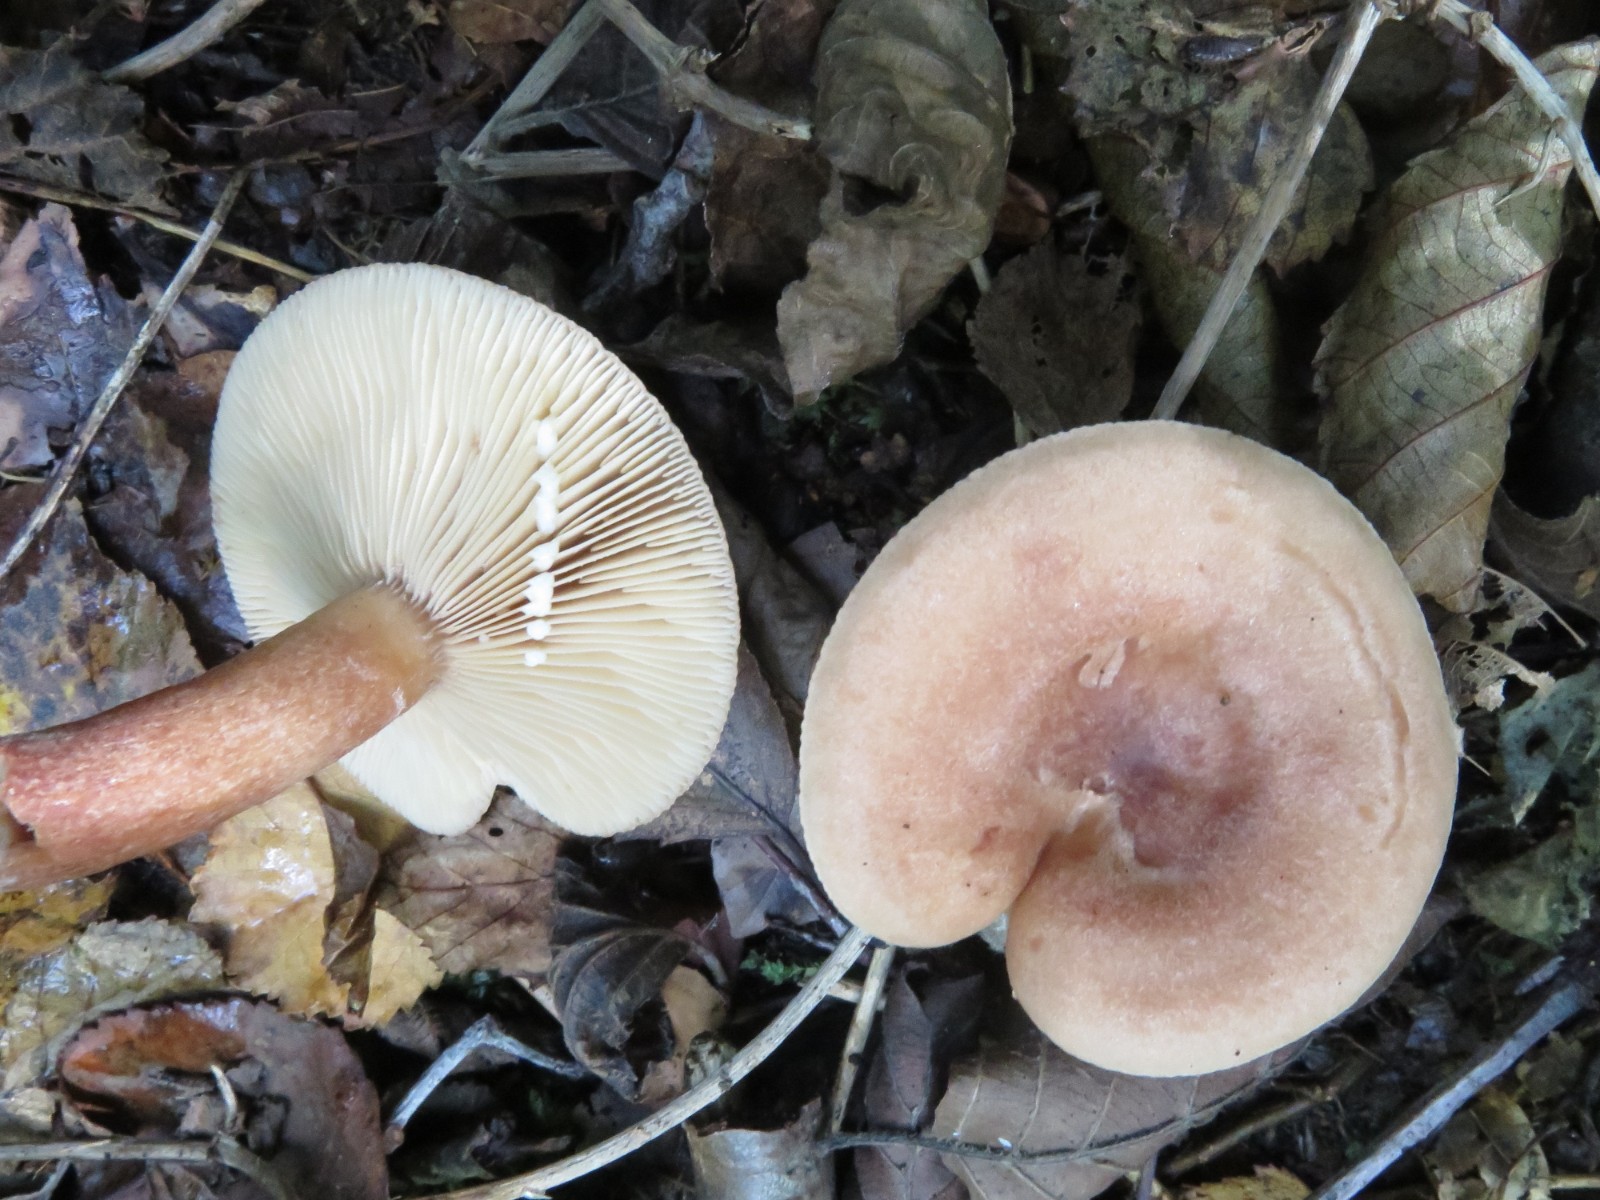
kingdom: Fungi
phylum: Basidiomycota
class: Agaricomycetes
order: Russulales
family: Russulaceae
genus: Lactarius
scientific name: Lactarius quietus
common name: ege-mælkehat
